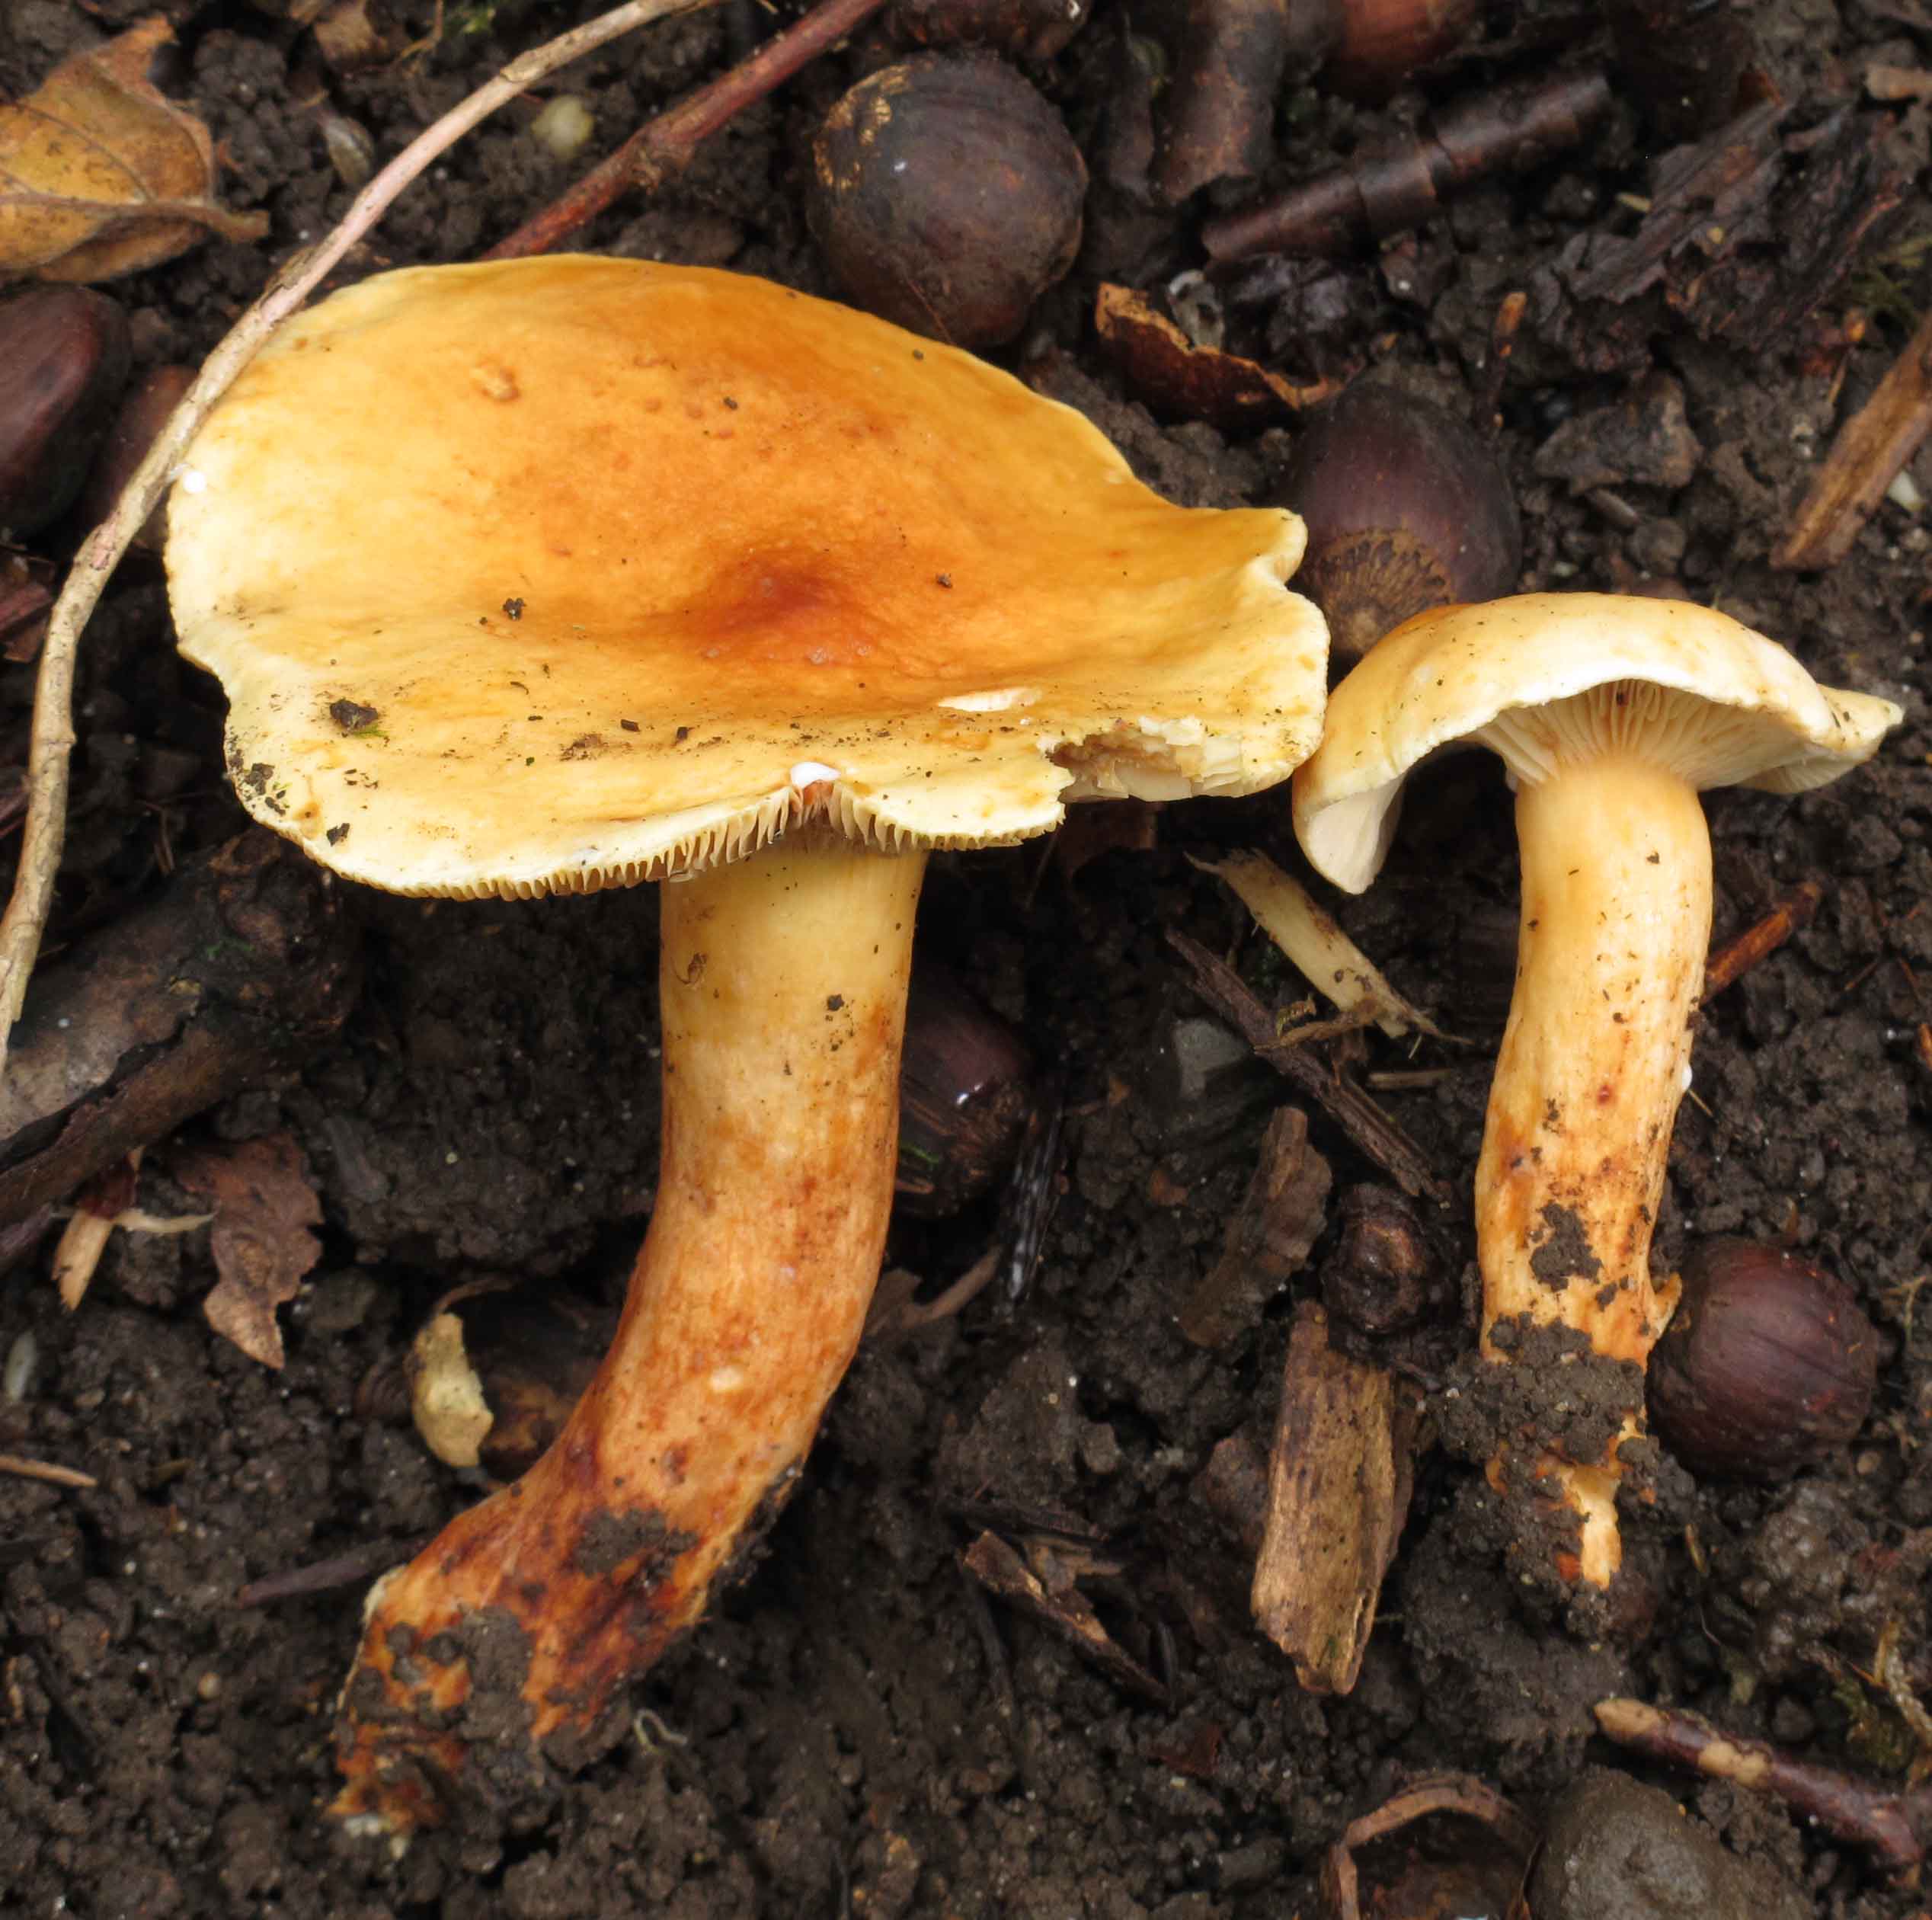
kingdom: Fungi
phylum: Basidiomycota
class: Agaricomycetes
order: Russulales
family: Russulaceae
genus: Lactarius
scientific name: Lactarius fulvissimus
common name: ræve-mælkehat
